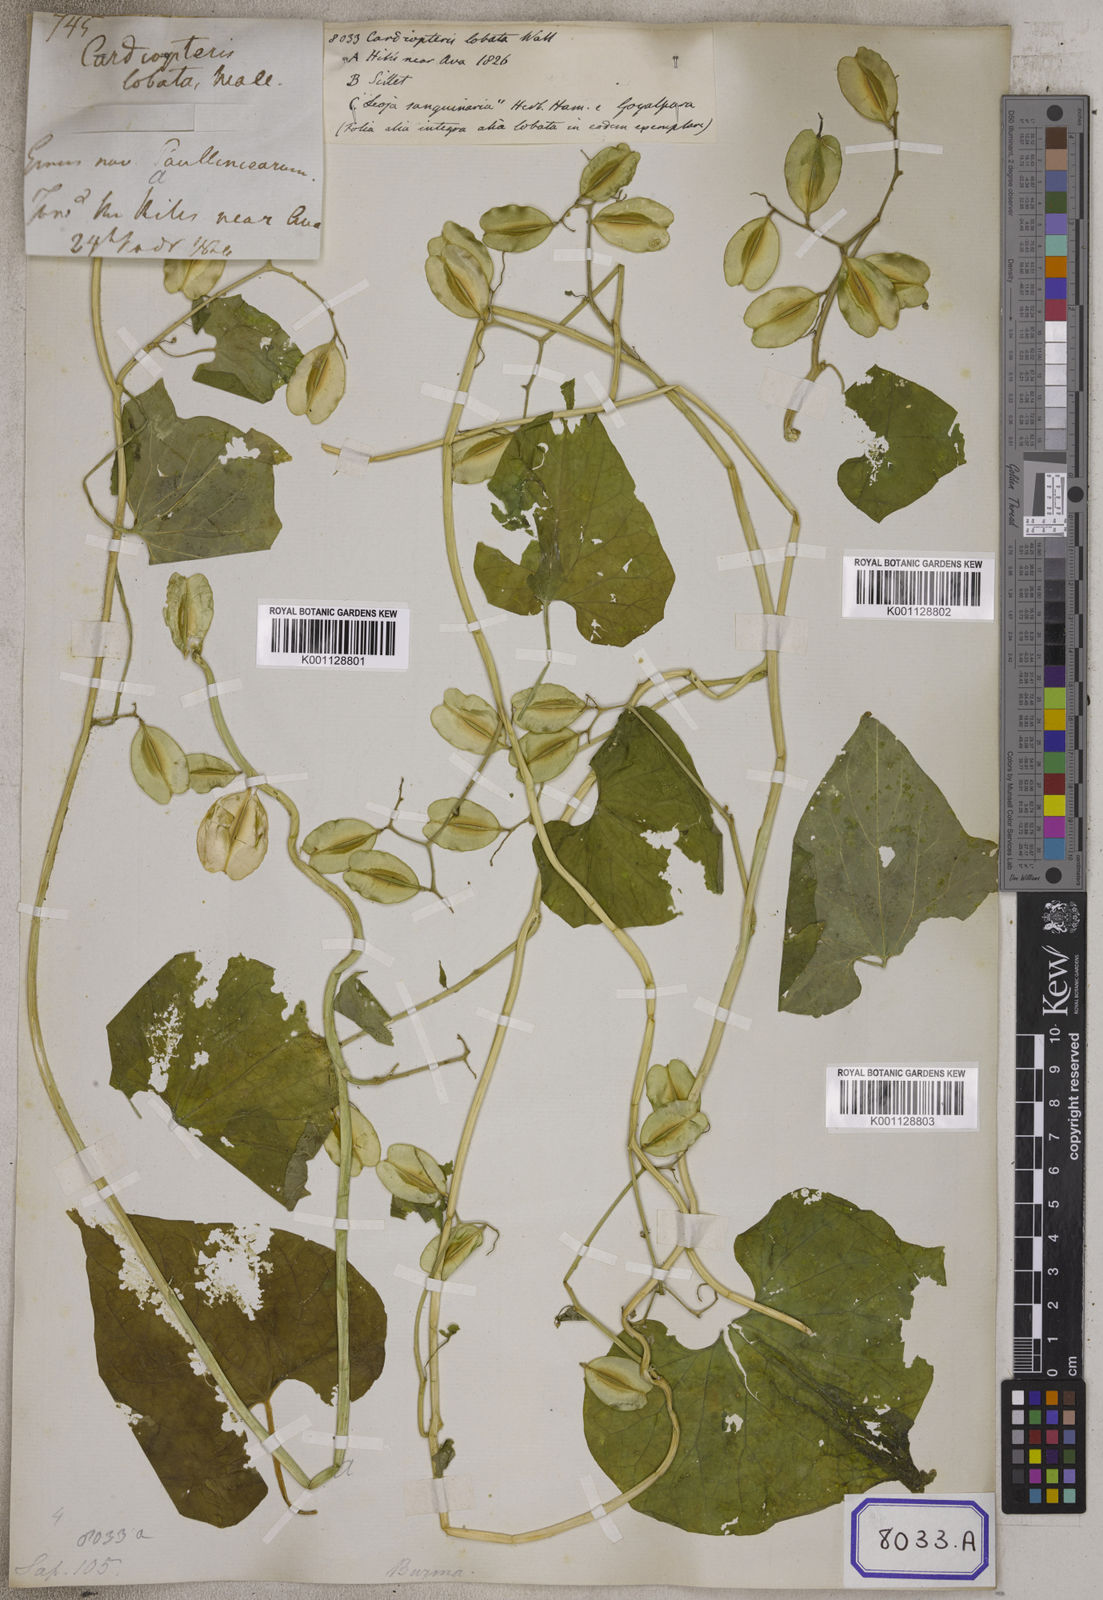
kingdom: Plantae
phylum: Tracheophyta
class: Magnoliopsida
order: Cardiopteridales
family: Cardiopteridaceae
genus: Cardiopteris
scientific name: Cardiopteris
